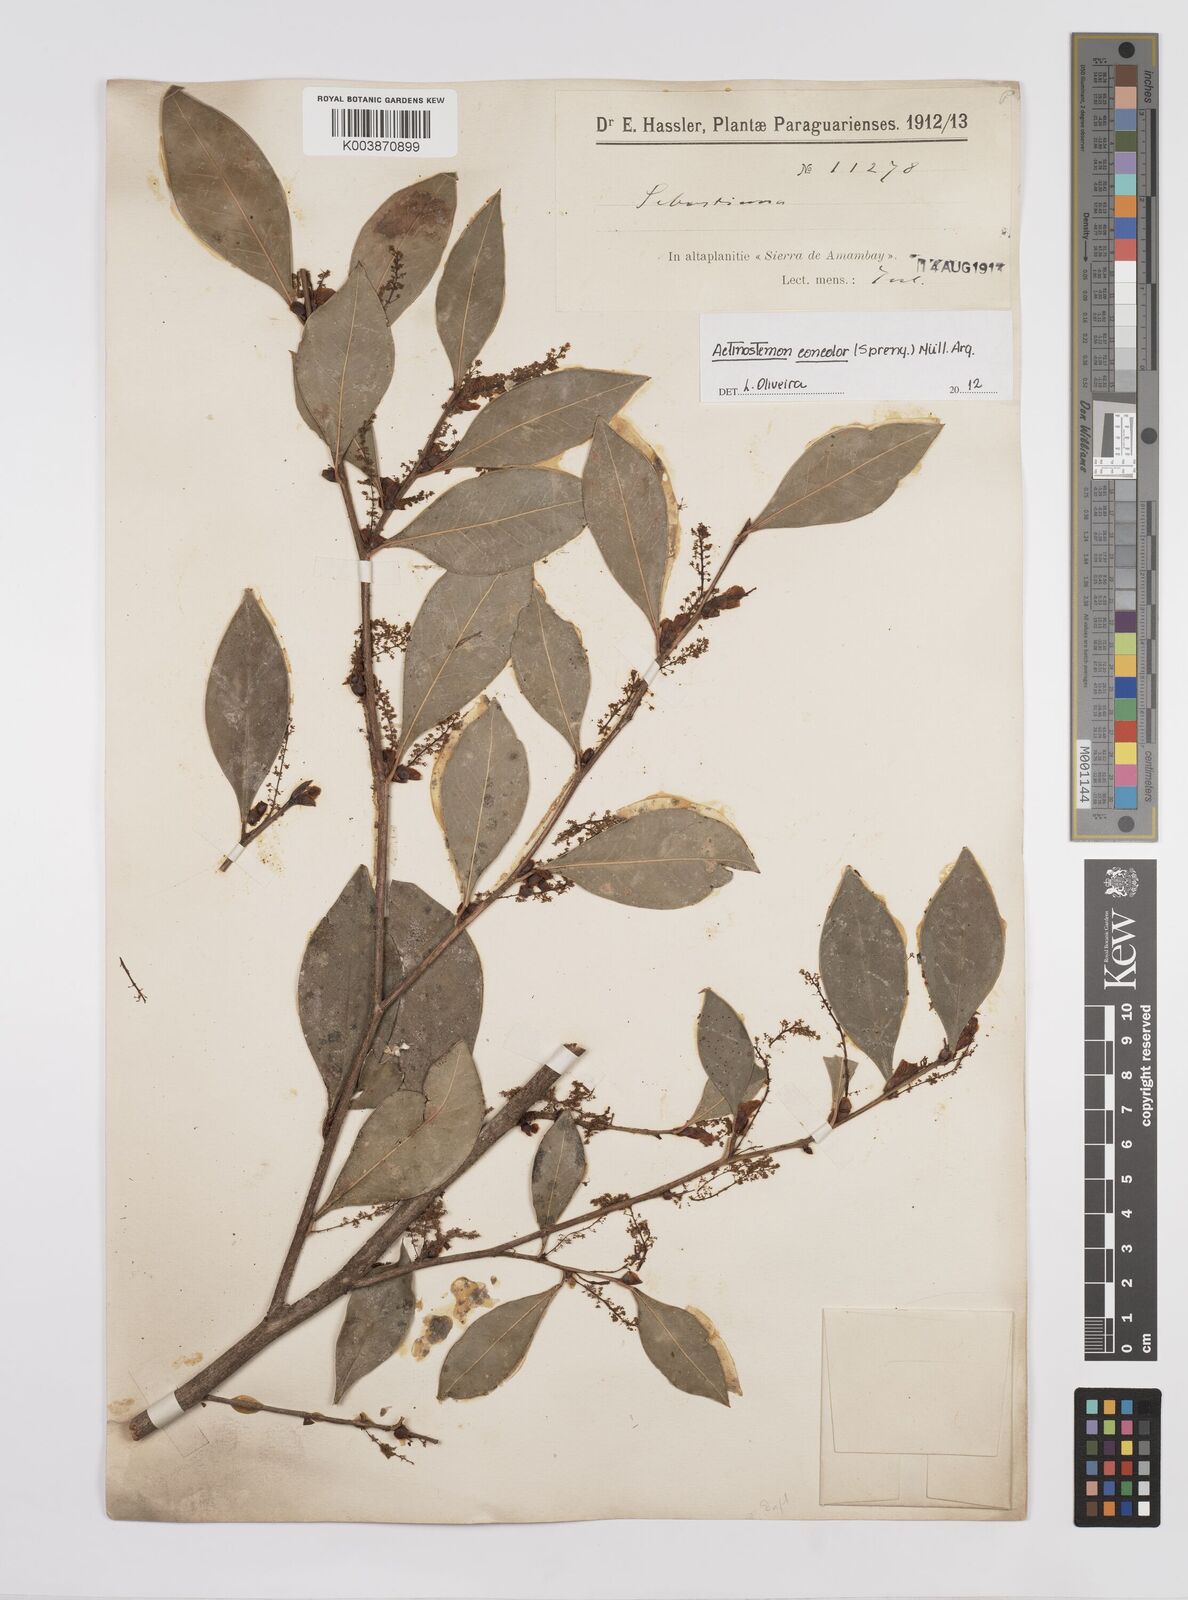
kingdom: Plantae
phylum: Tracheophyta
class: Magnoliopsida
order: Malpighiales
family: Euphorbiaceae
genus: Actinostemon
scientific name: Actinostemon concolor
